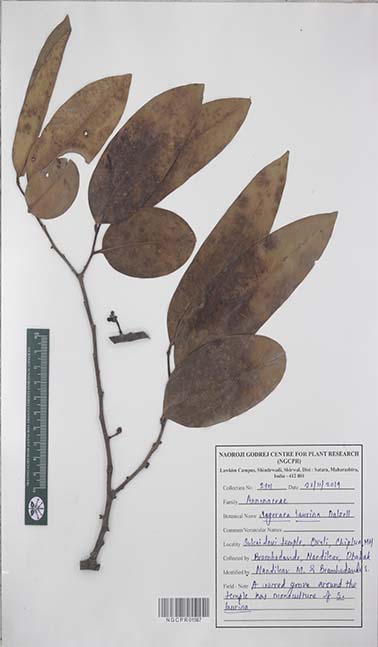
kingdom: Plantae
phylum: Tracheophyta
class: Magnoliopsida
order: Magnoliales
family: Annonaceae
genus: Sageraea
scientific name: Sageraea laurina
